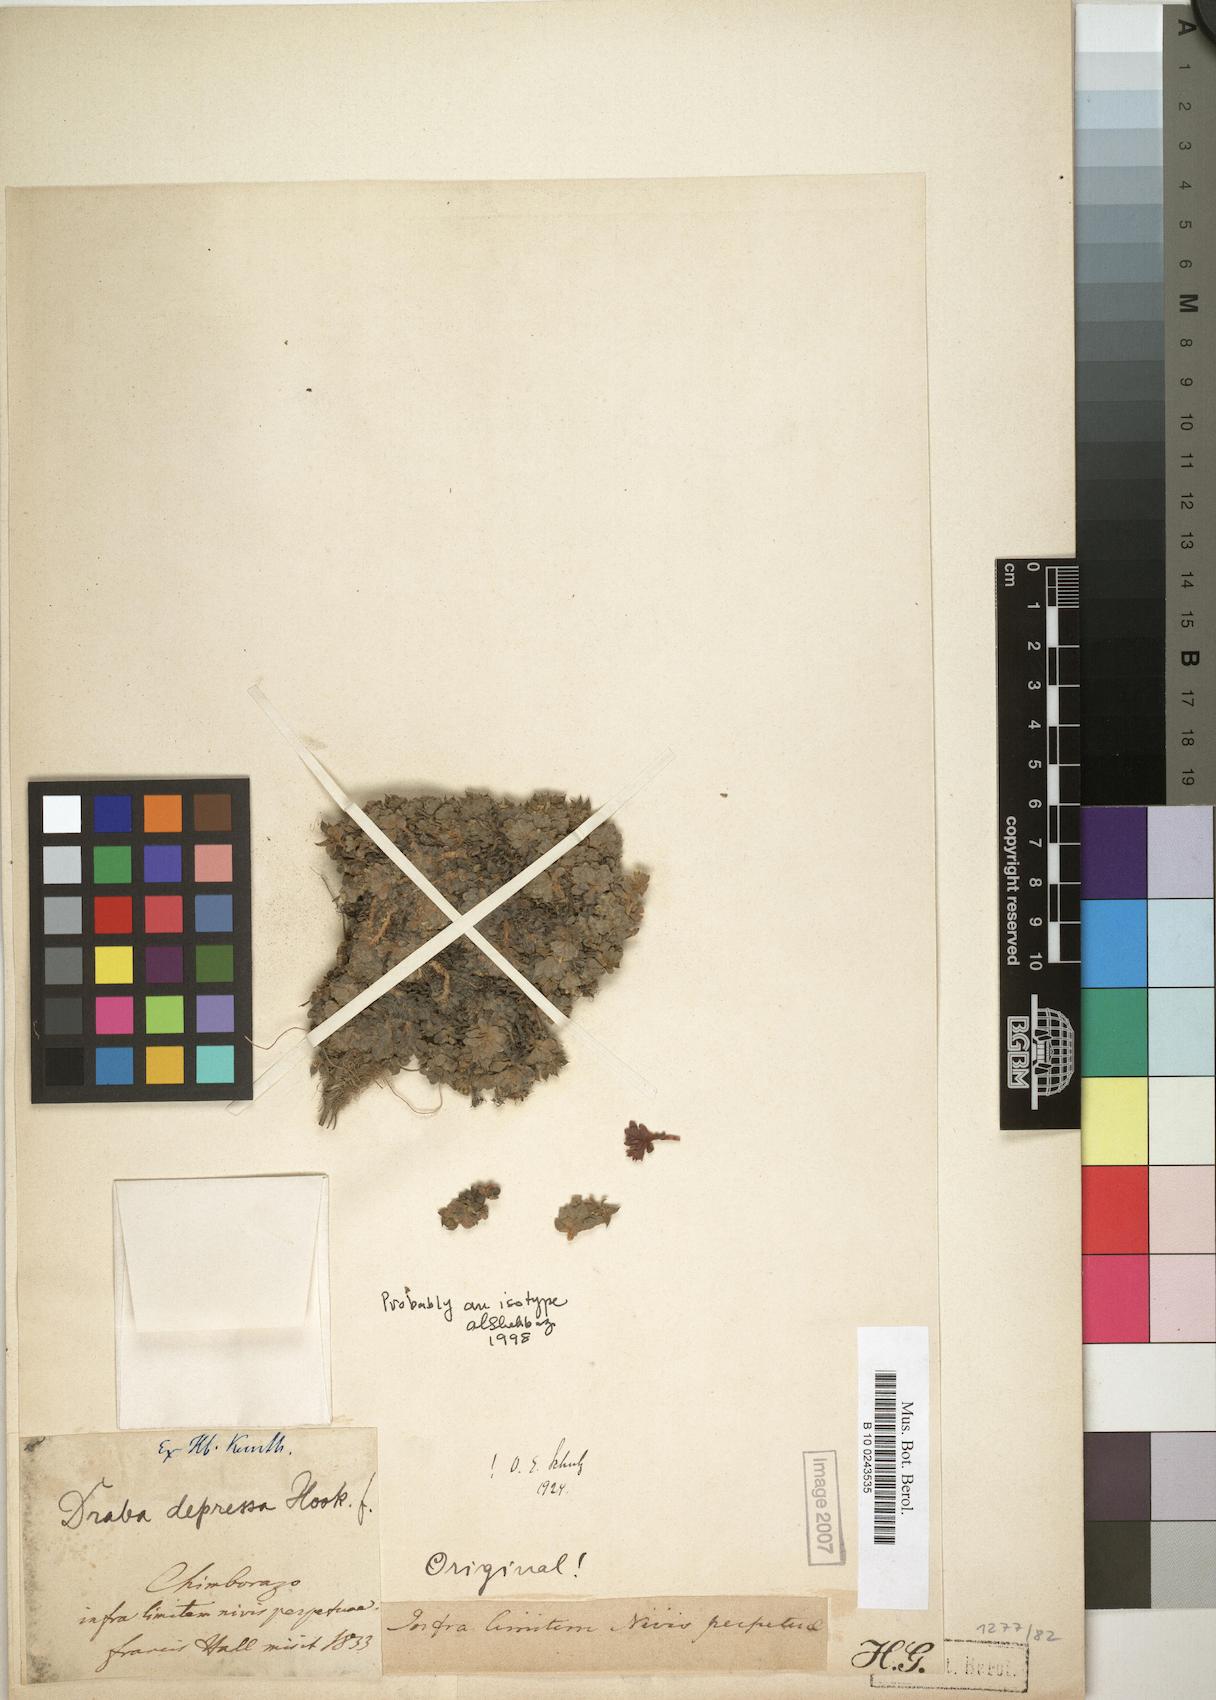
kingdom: Plantae
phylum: Tracheophyta
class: Magnoliopsida
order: Brassicales
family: Brassicaceae
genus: Draba
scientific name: Draba depressa
